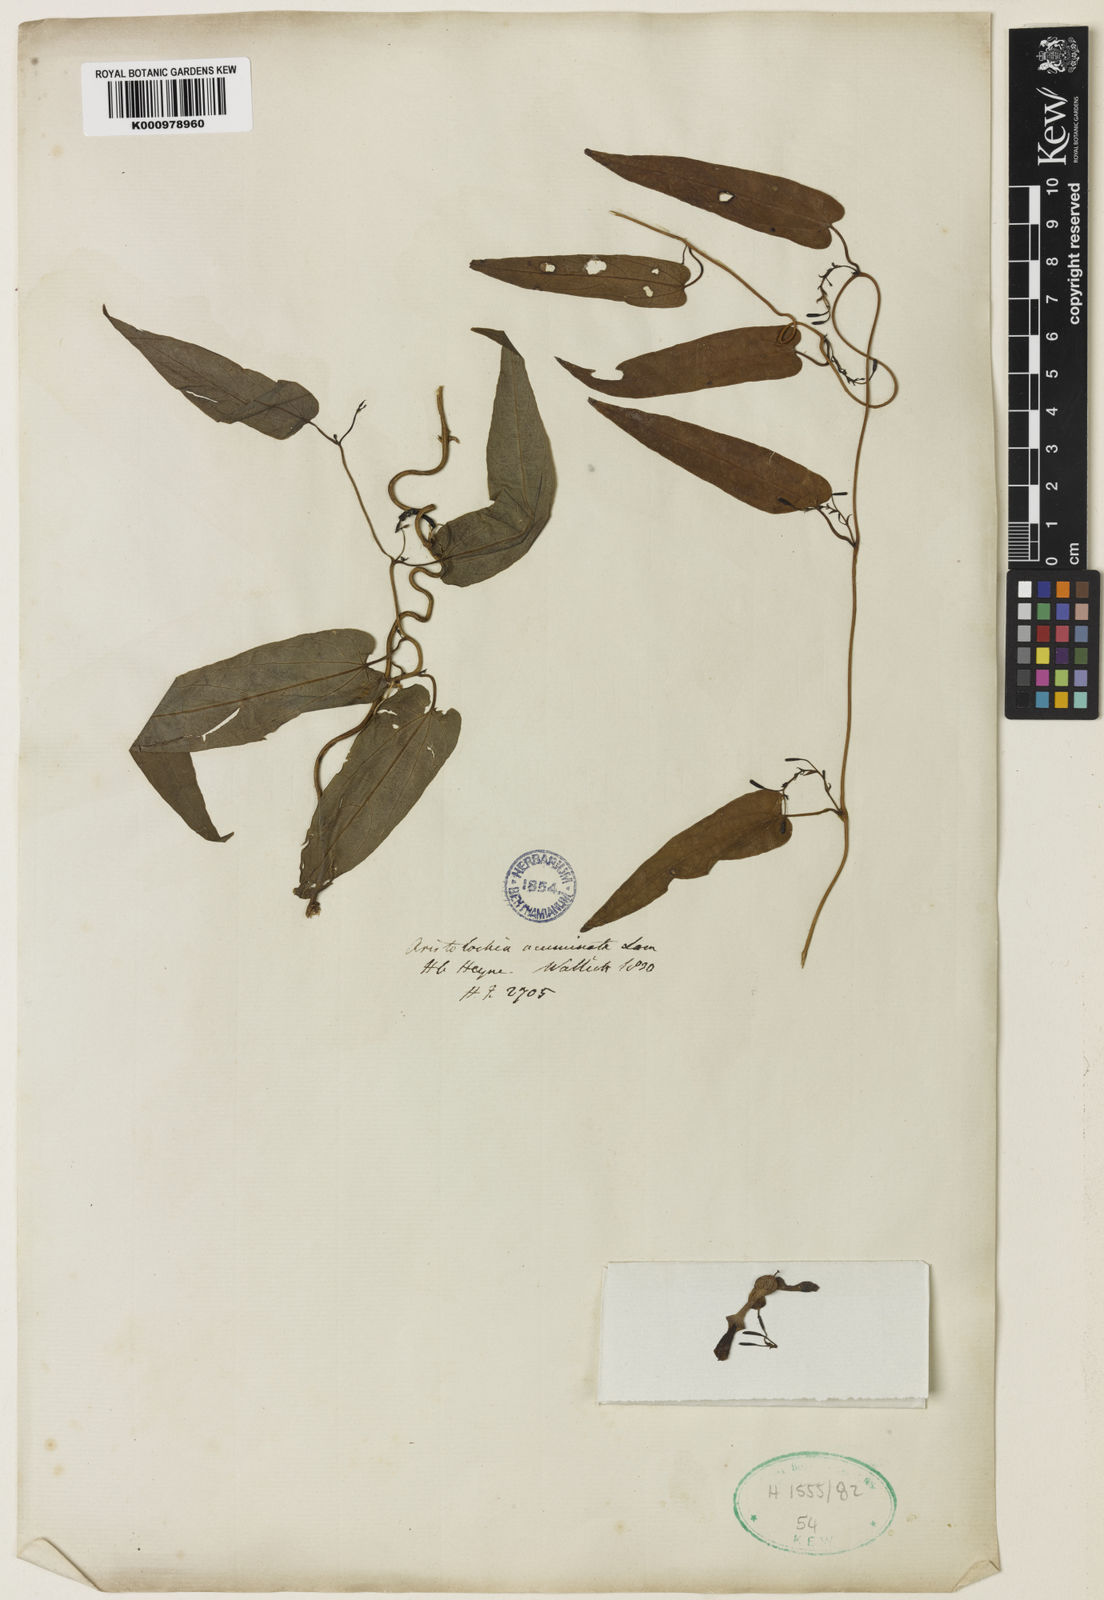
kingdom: Plantae
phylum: Tracheophyta
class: Magnoliopsida
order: Piperales
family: Aristolochiaceae
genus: Aristolochia
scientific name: Aristolochia acuminata
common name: Indian birthwort
